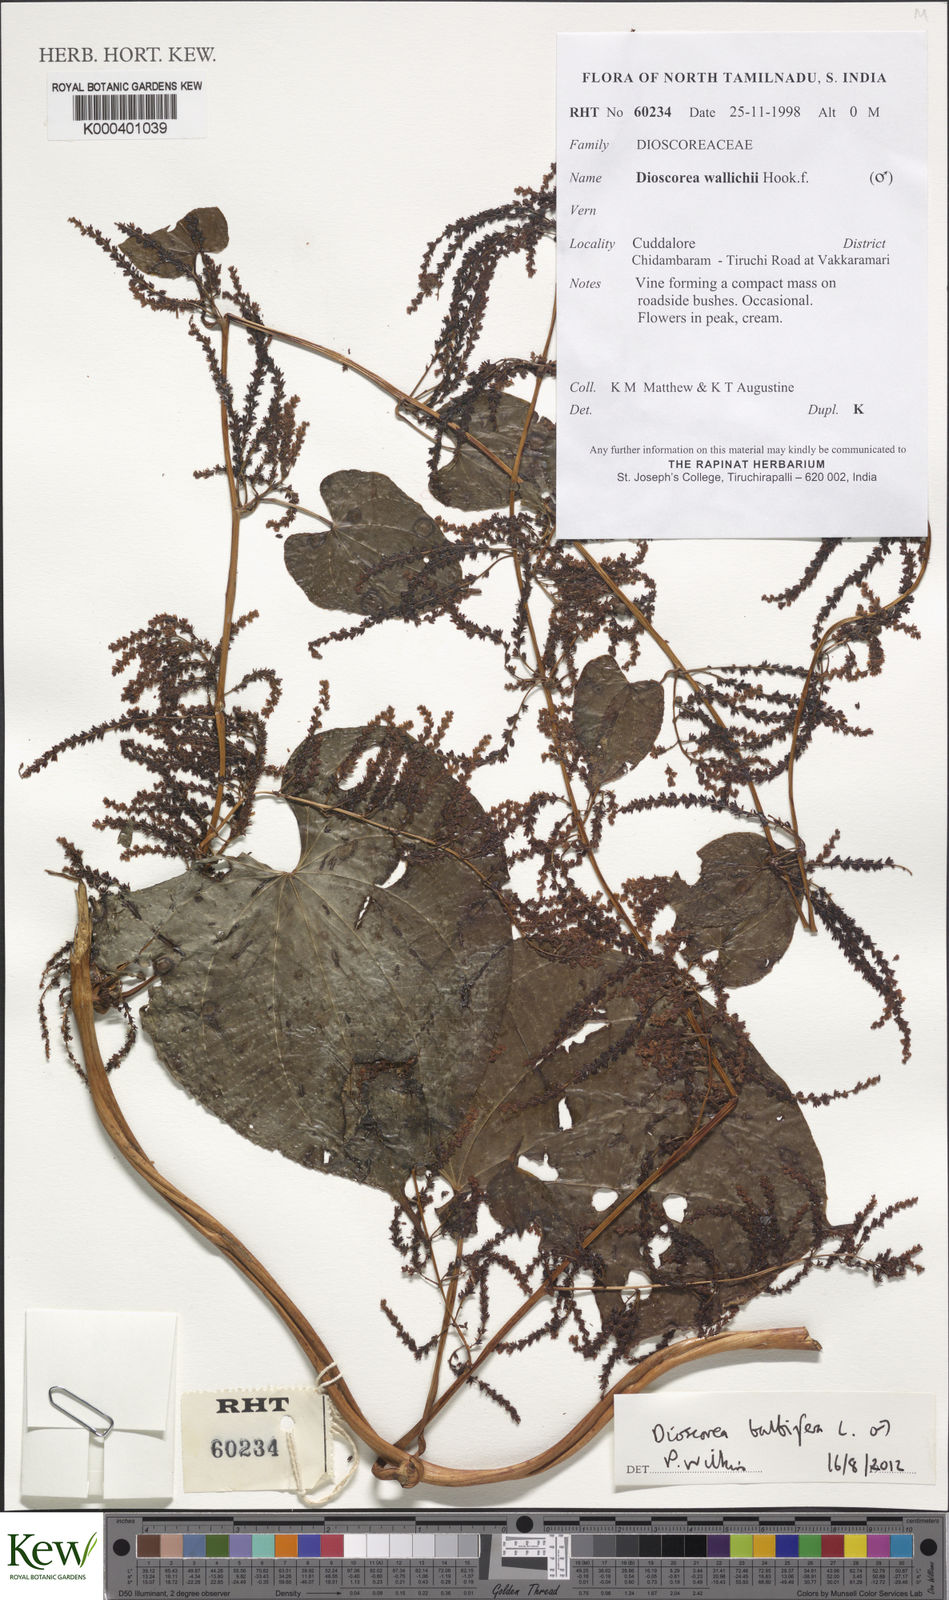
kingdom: Plantae
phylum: Tracheophyta
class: Liliopsida
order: Dioscoreales
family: Dioscoreaceae
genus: Dioscorea
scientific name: Dioscorea bulbifera
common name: Air yam
